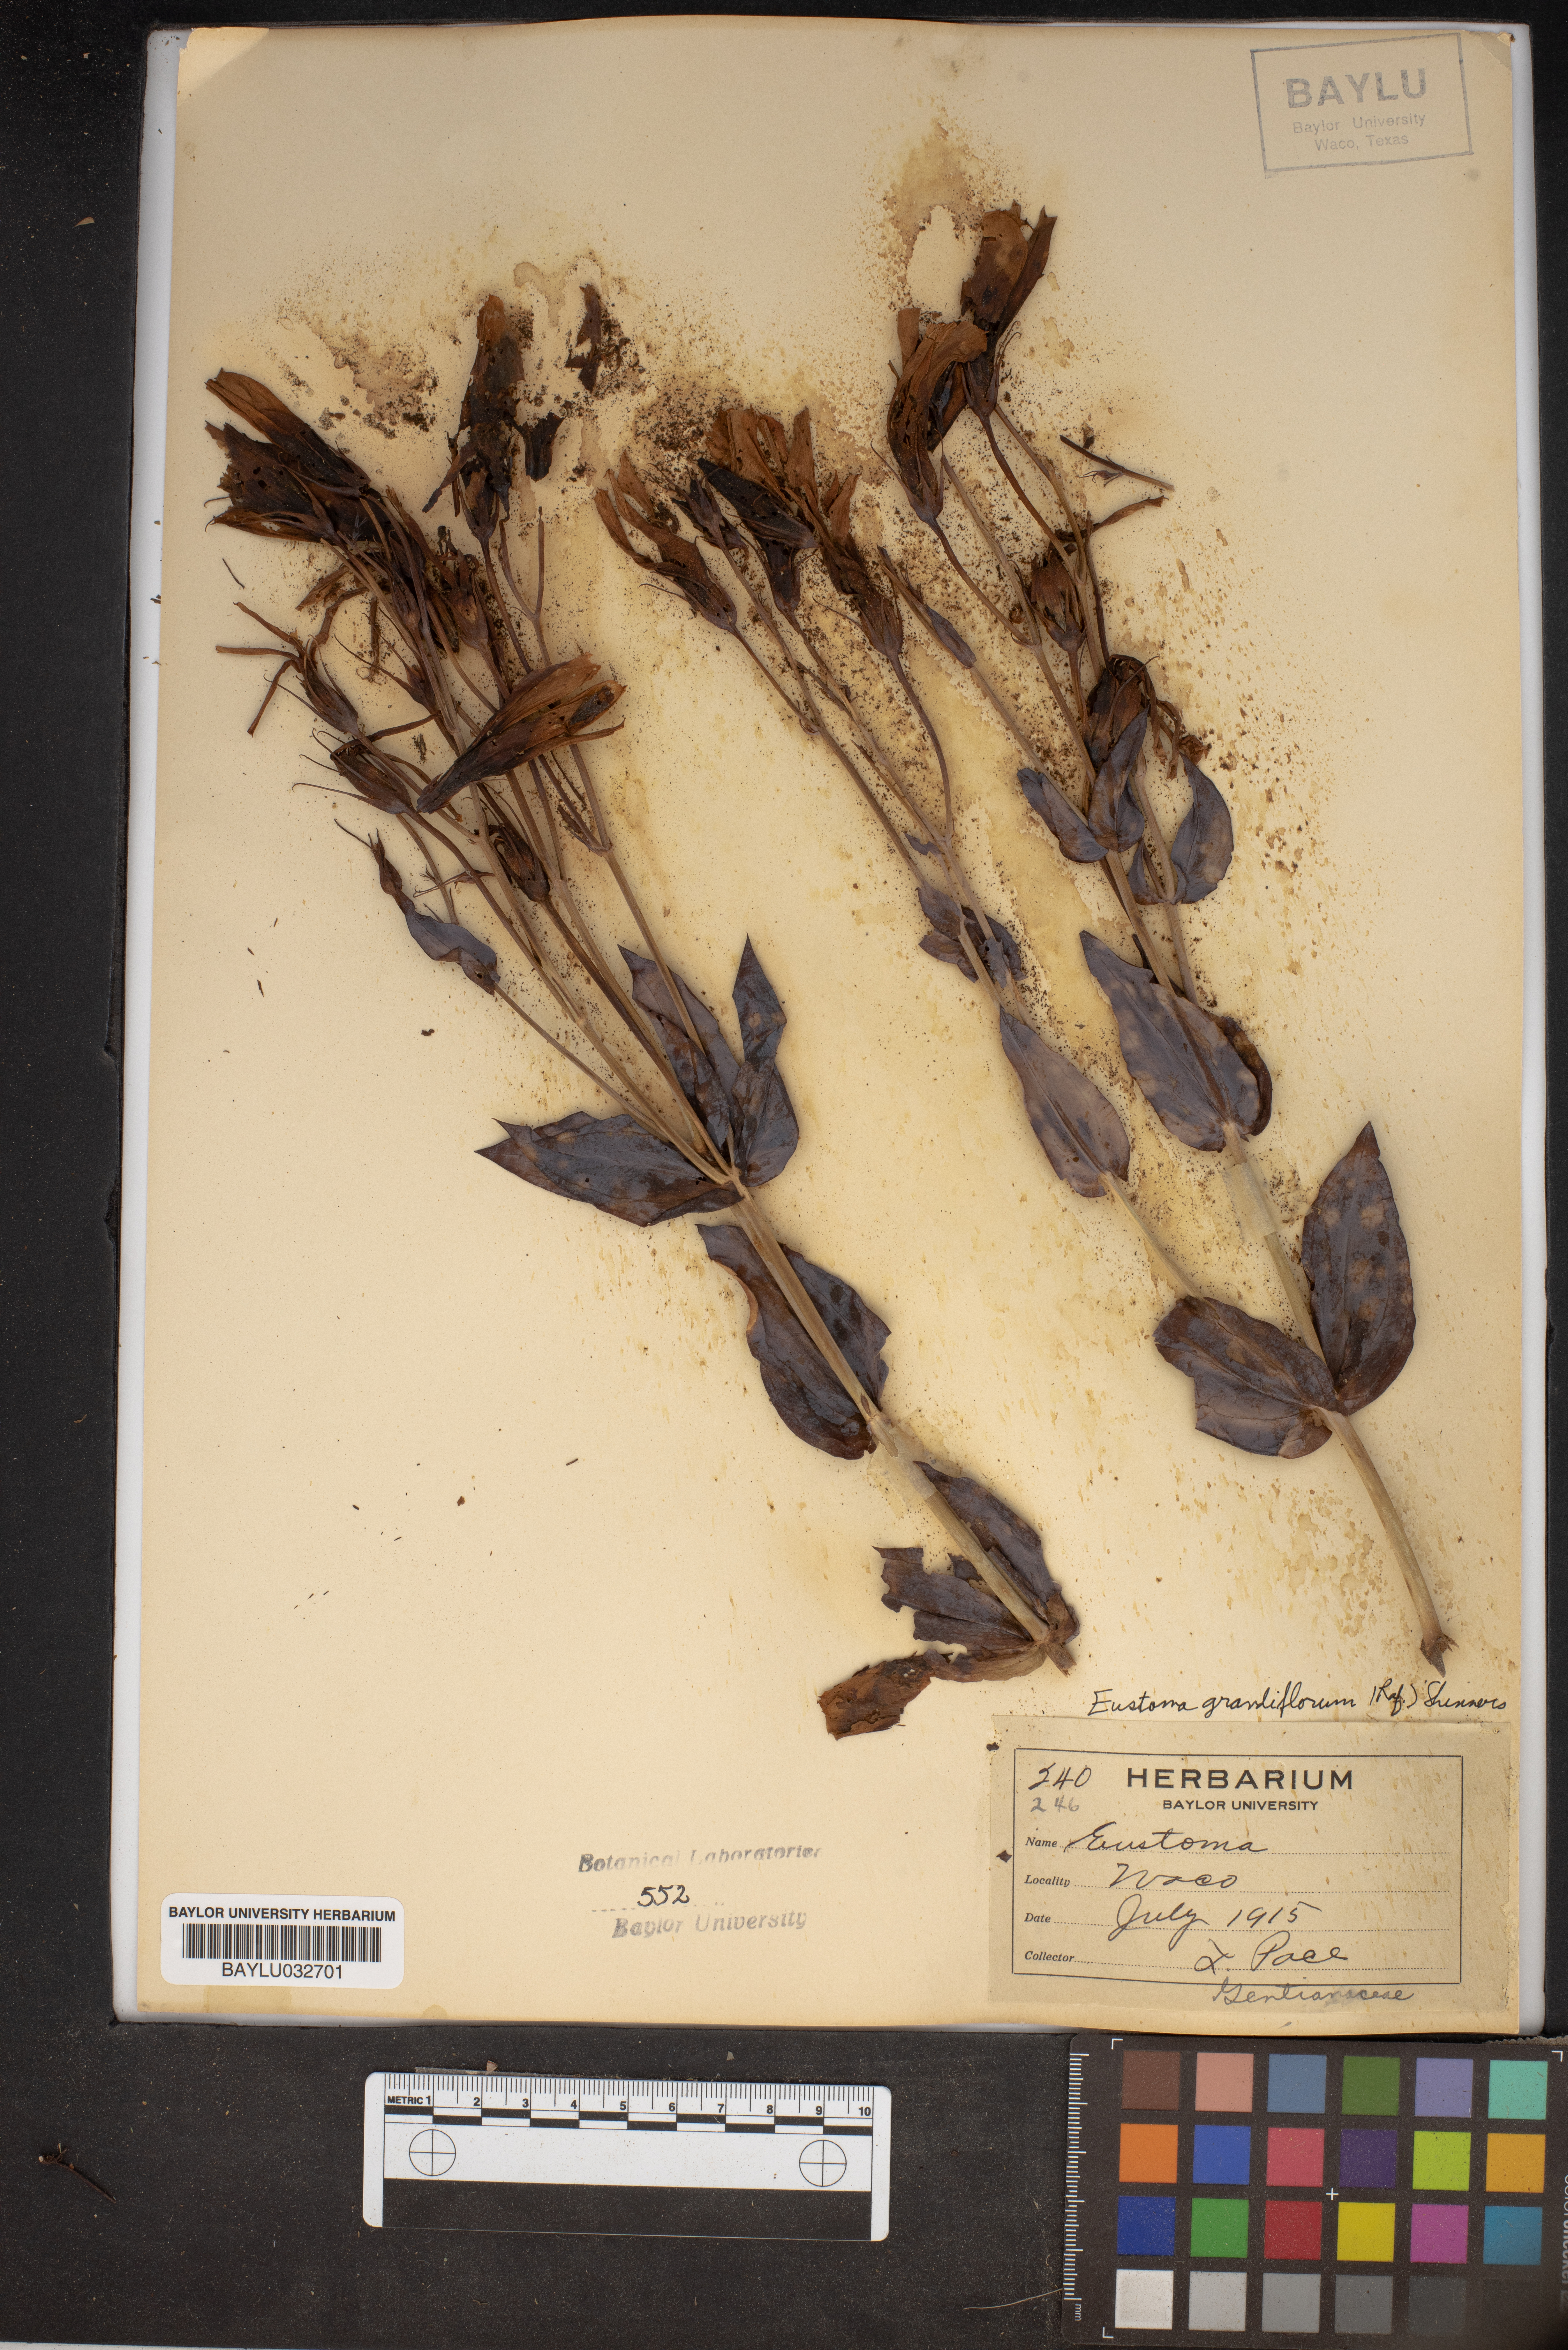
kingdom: Plantae
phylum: Tracheophyta
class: Magnoliopsida
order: Gentianales
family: Gentianaceae
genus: Eustoma
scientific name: Eustoma russellianum
